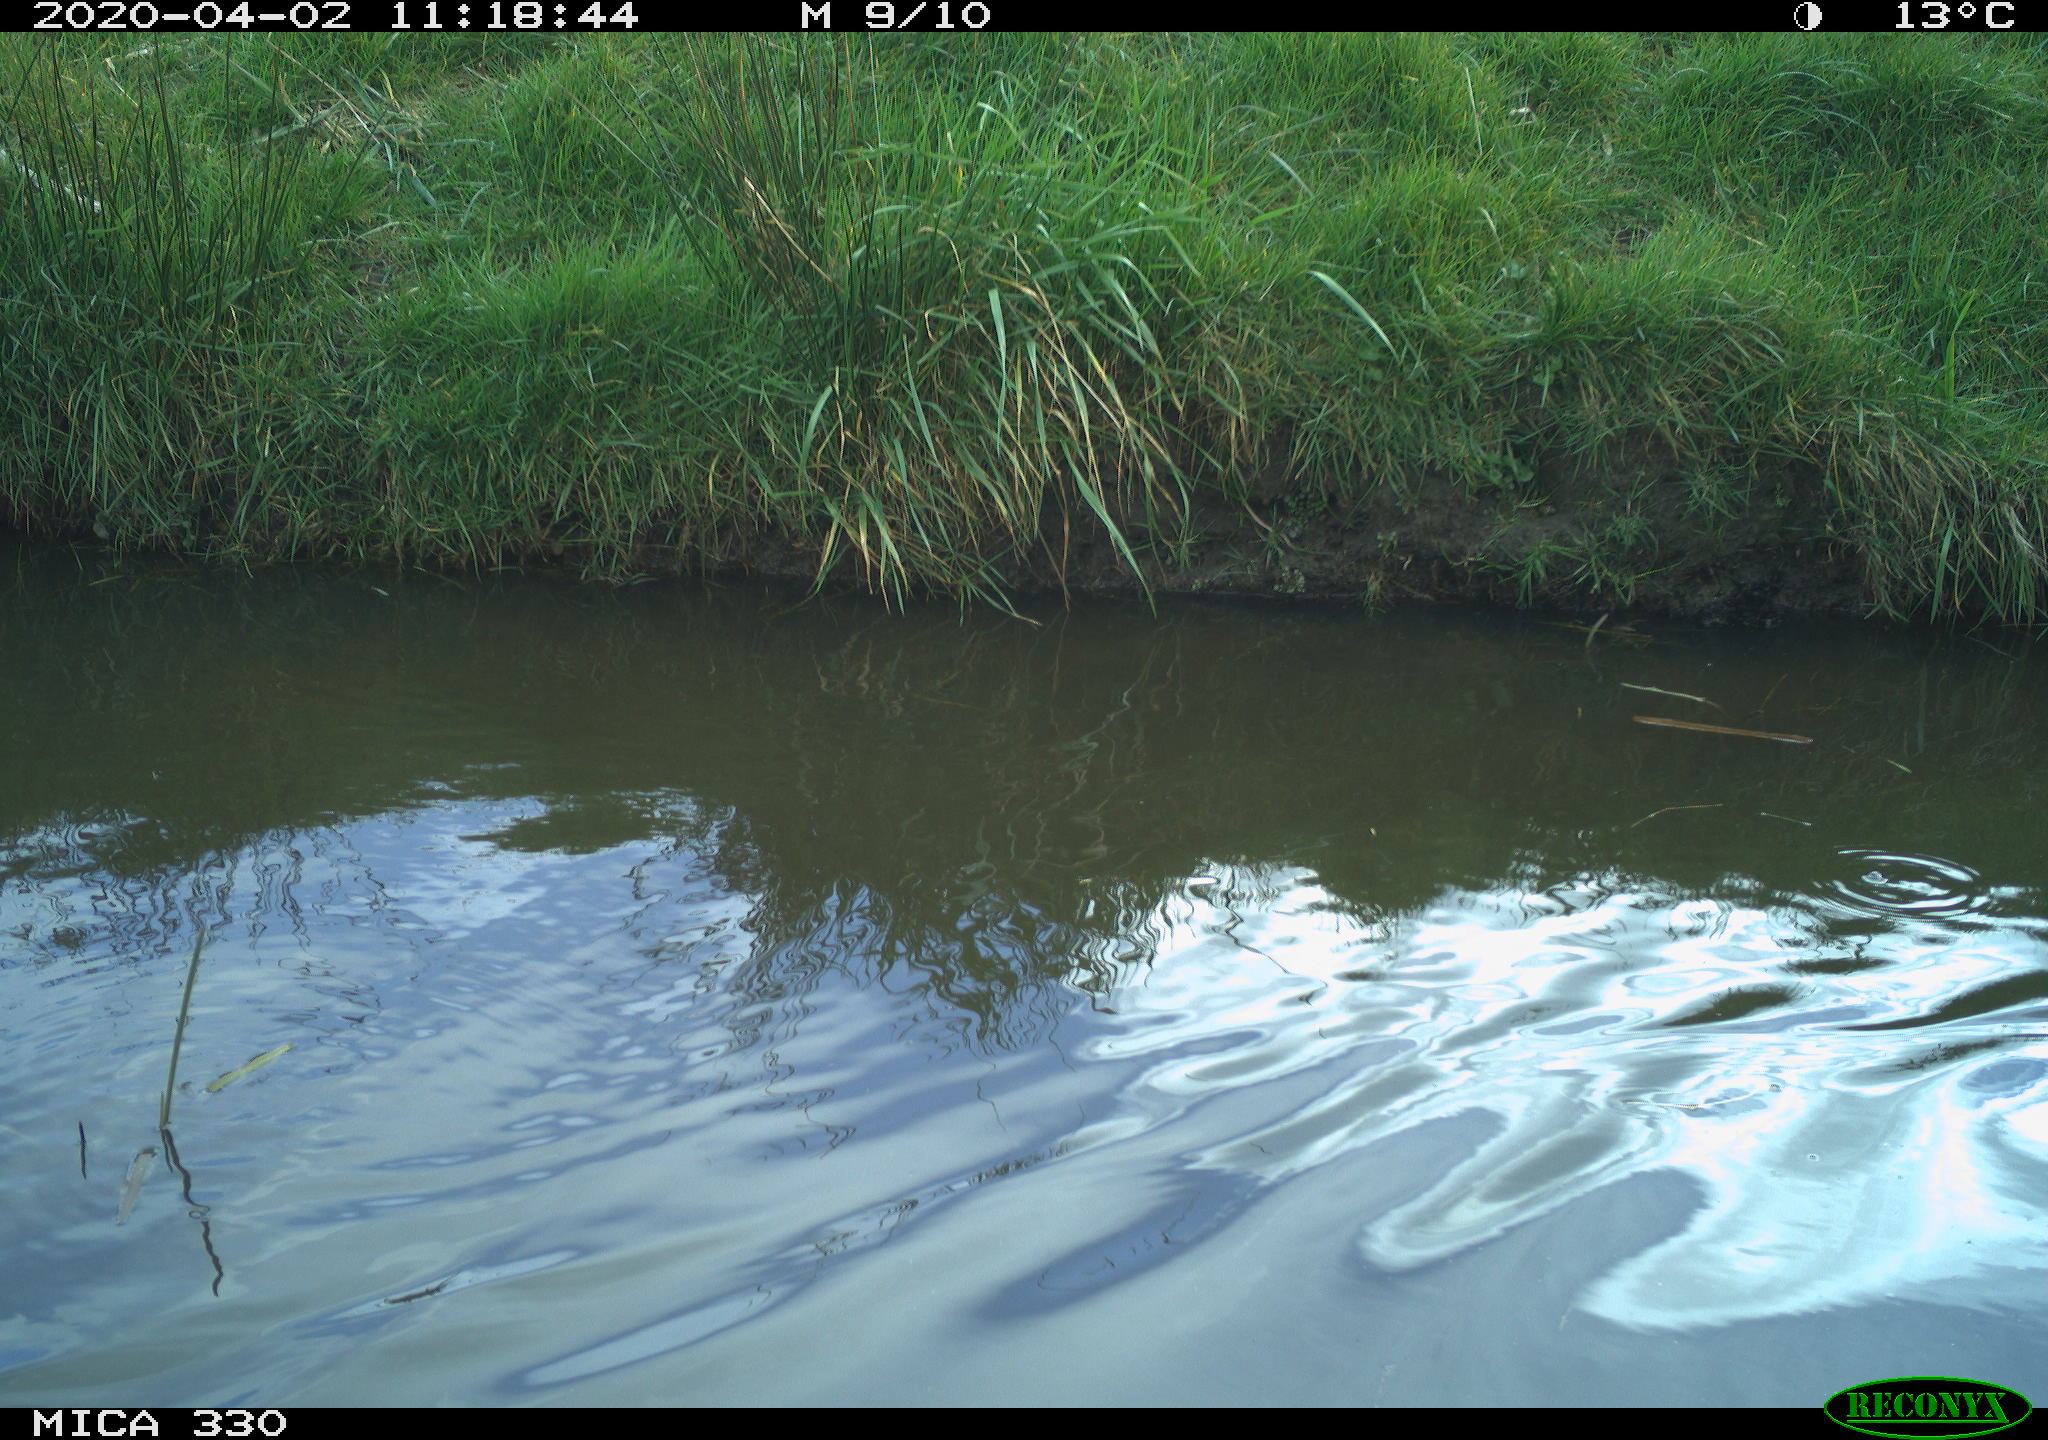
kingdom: Animalia
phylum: Chordata
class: Aves
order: Anseriformes
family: Anatidae
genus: Anas
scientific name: Anas platyrhynchos
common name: Mallard
